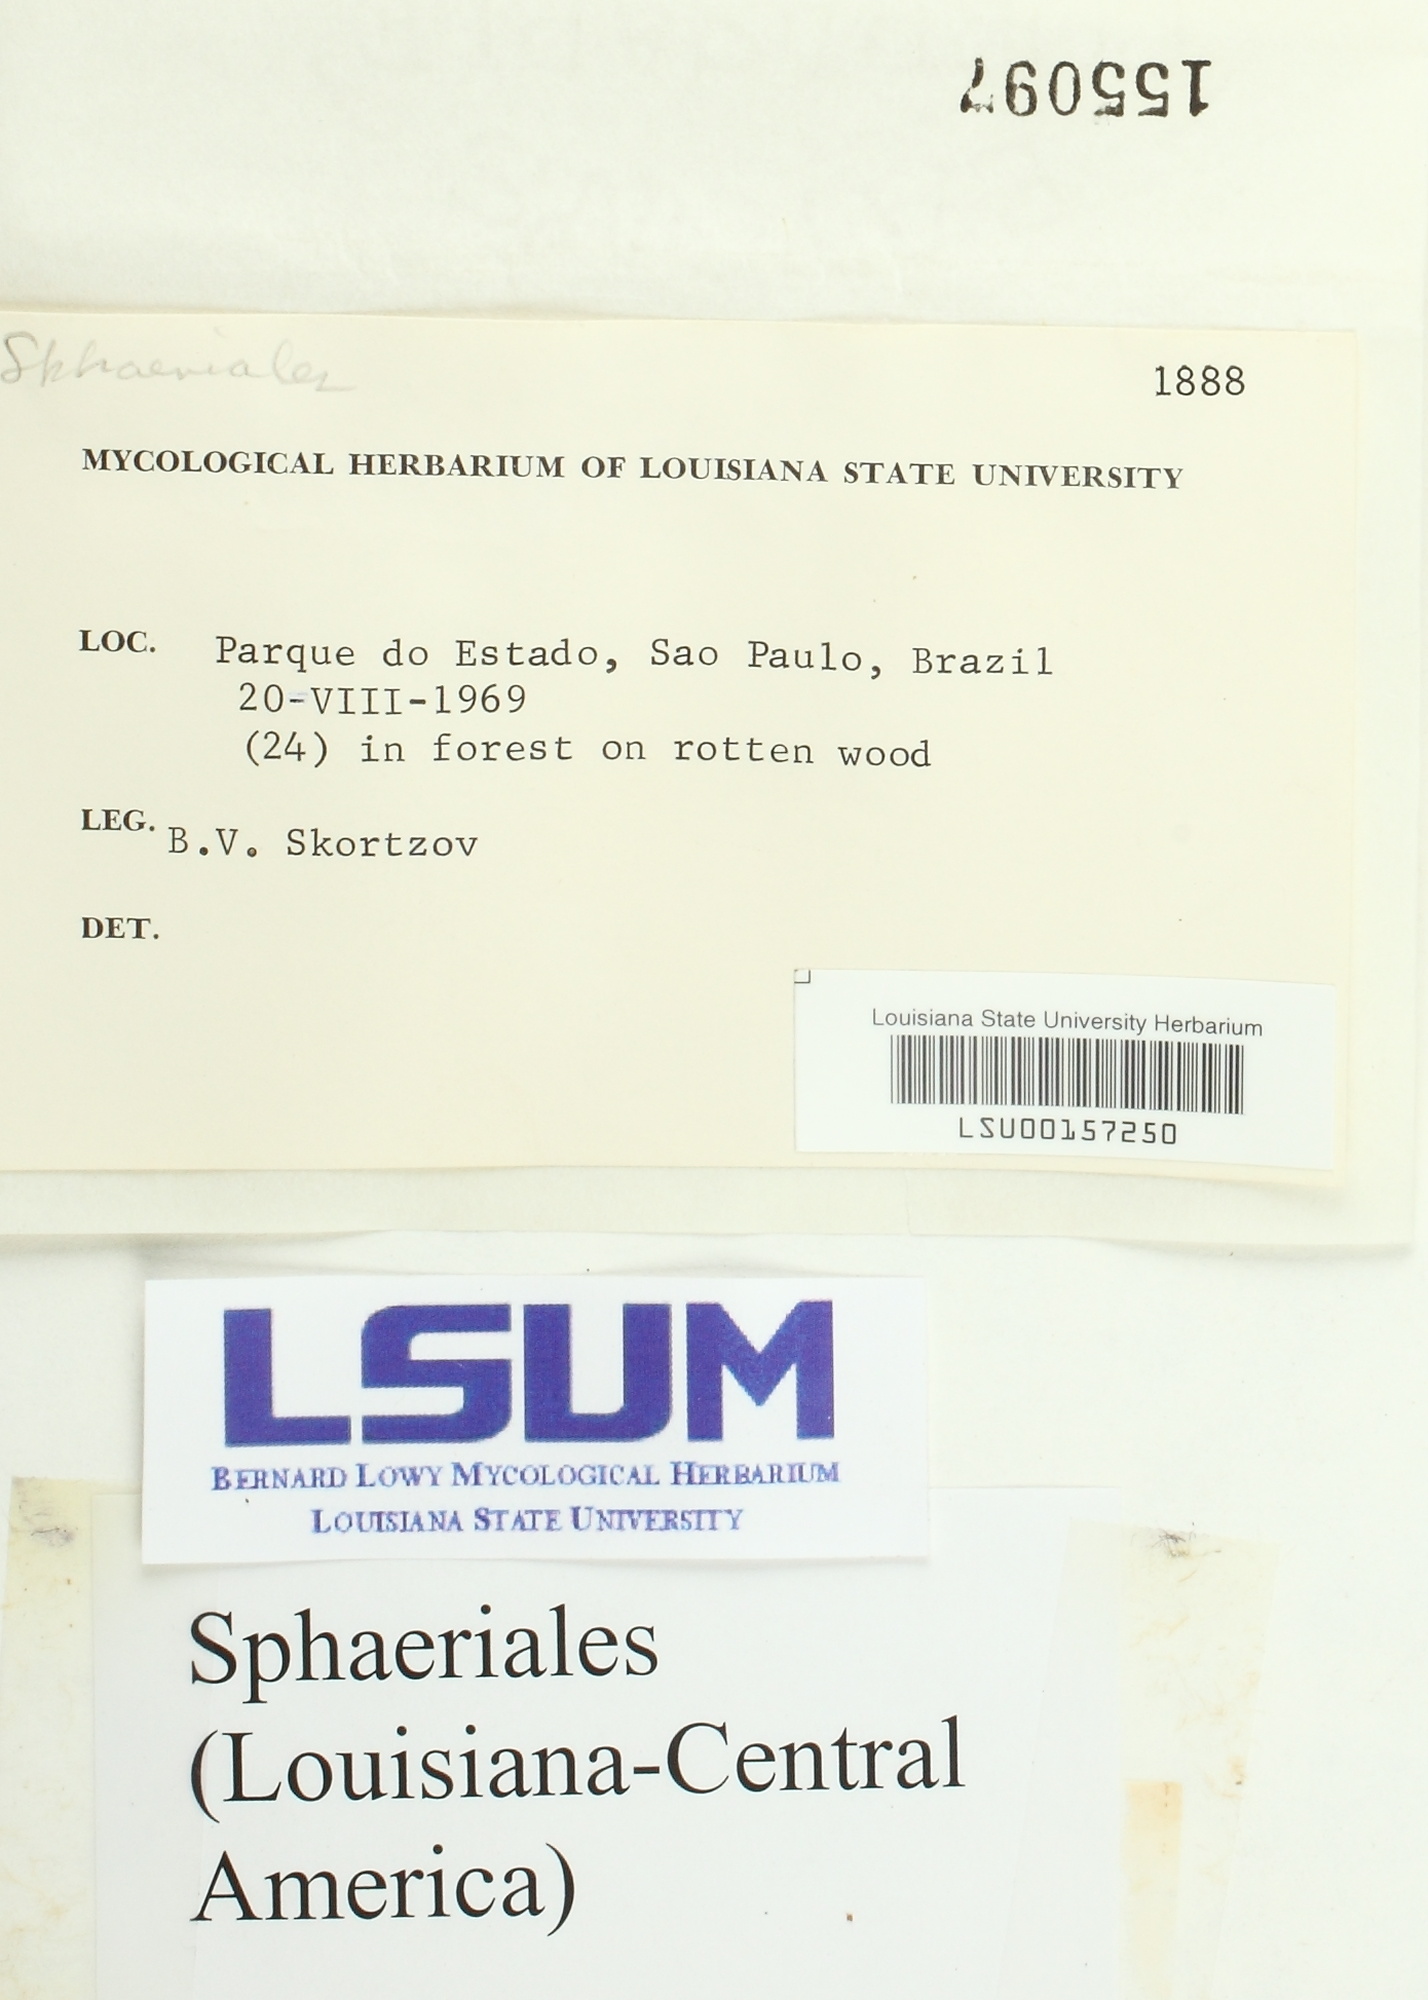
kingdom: Fungi
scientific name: Fungi
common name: Fungi
